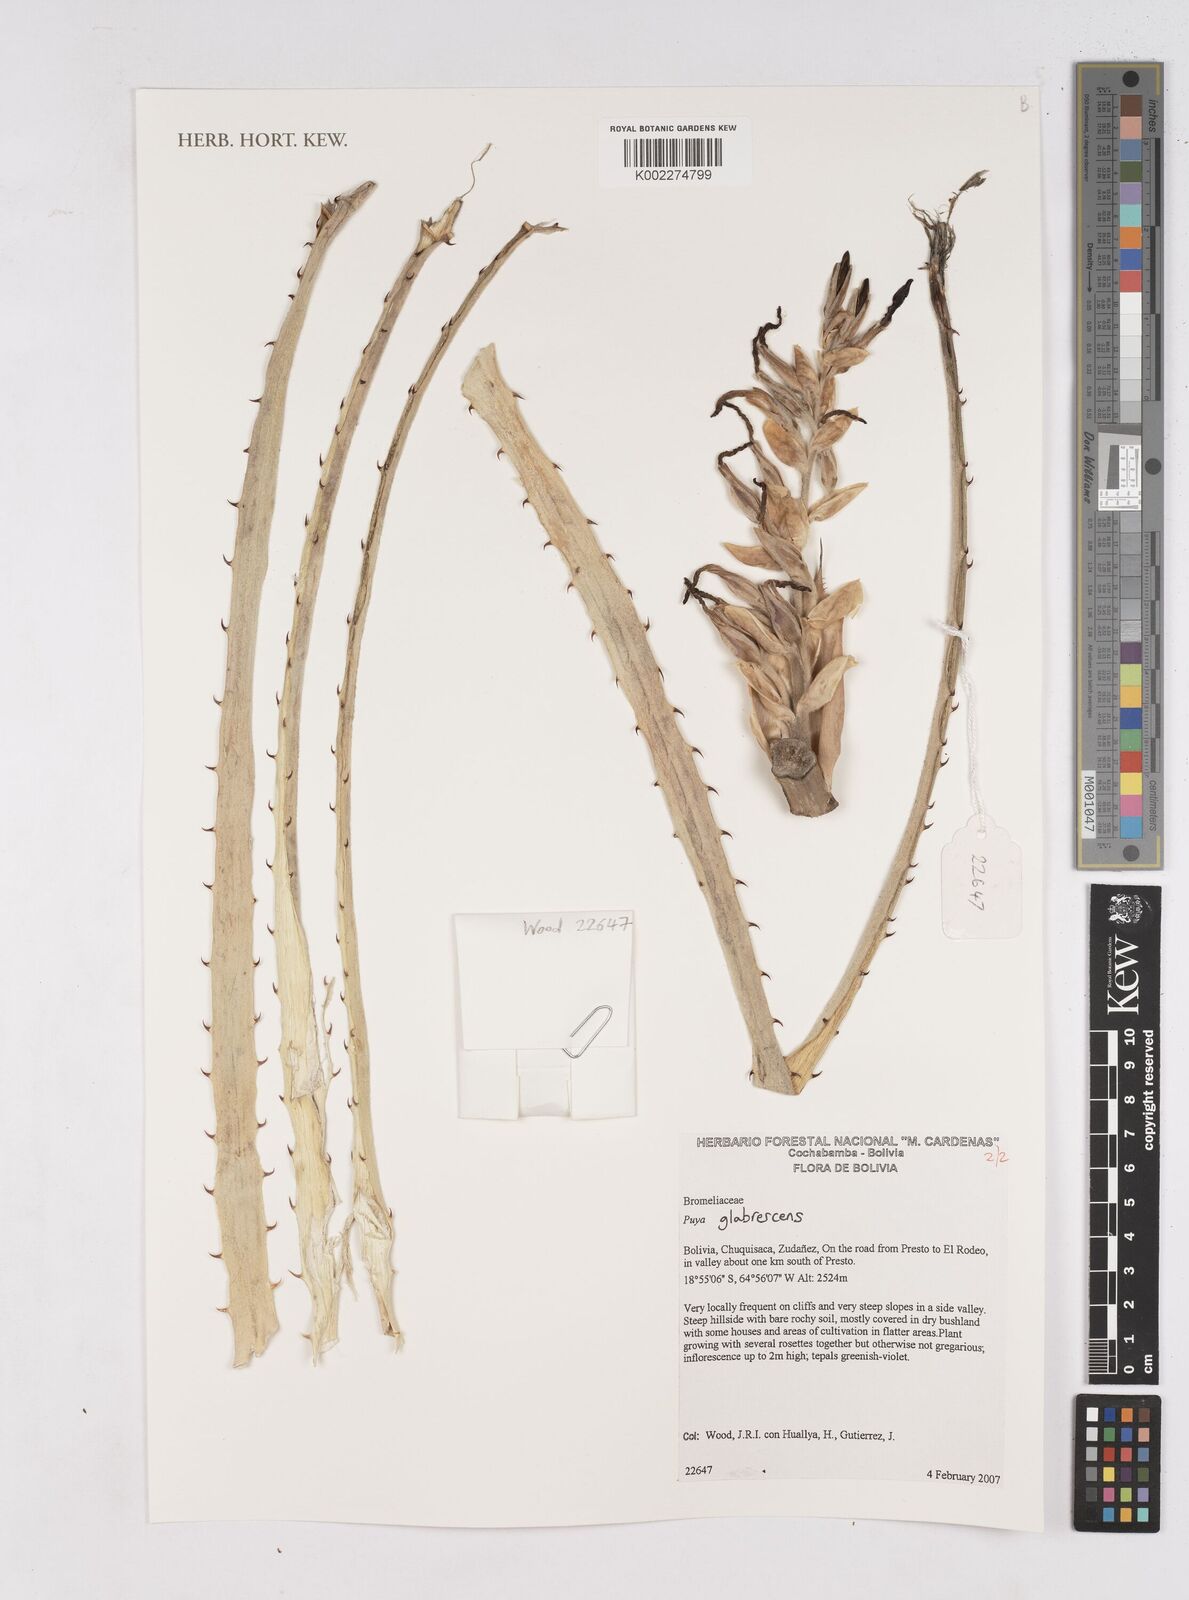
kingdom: Plantae
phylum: Tracheophyta
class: Liliopsida
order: Poales
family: Bromeliaceae
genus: Puya
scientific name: Puya glabrescens
